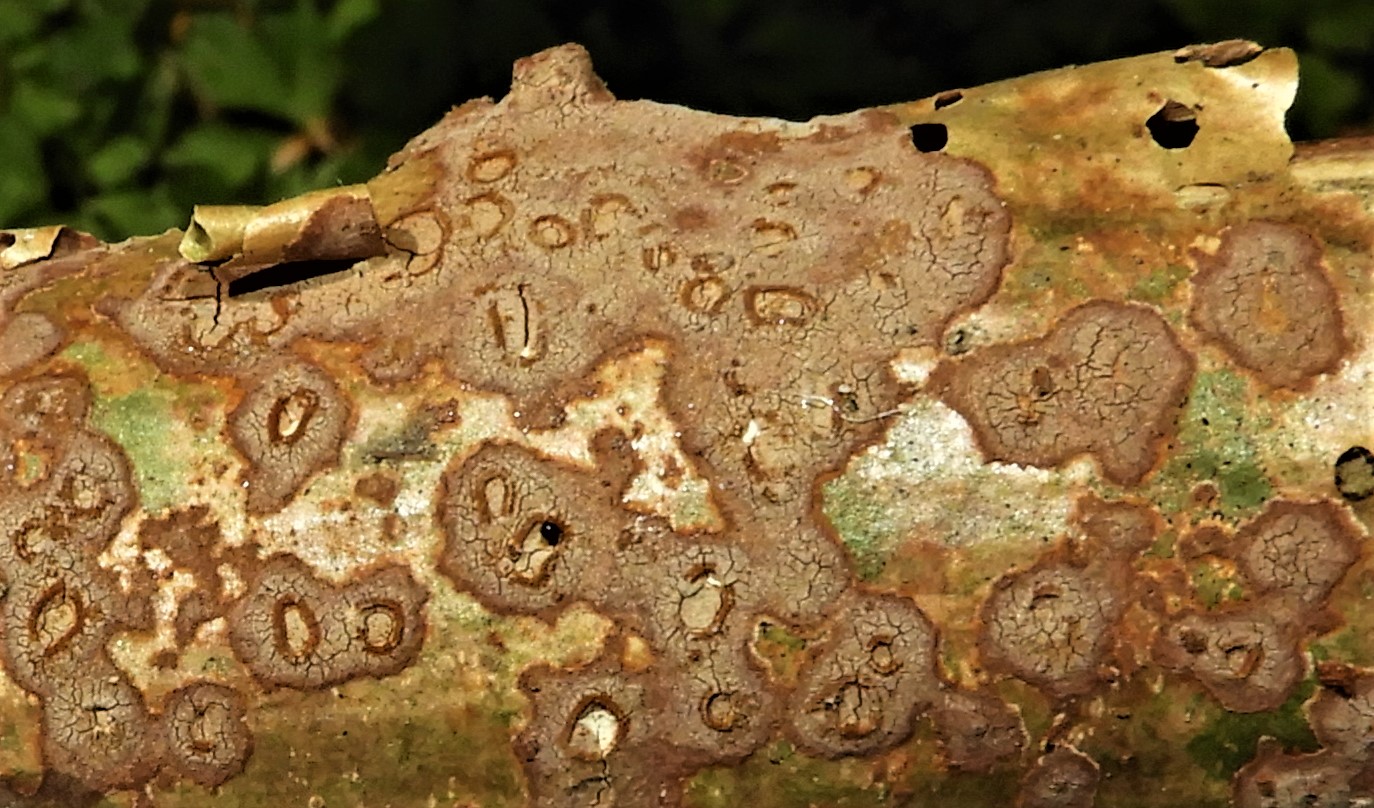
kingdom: Fungi
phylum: Basidiomycota
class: Agaricomycetes
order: Hymenochaetales
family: Hymenochaetaceae
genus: Fuscoporia
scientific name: Fuscoporia ferrea
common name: skorpe-ildporesvamp
